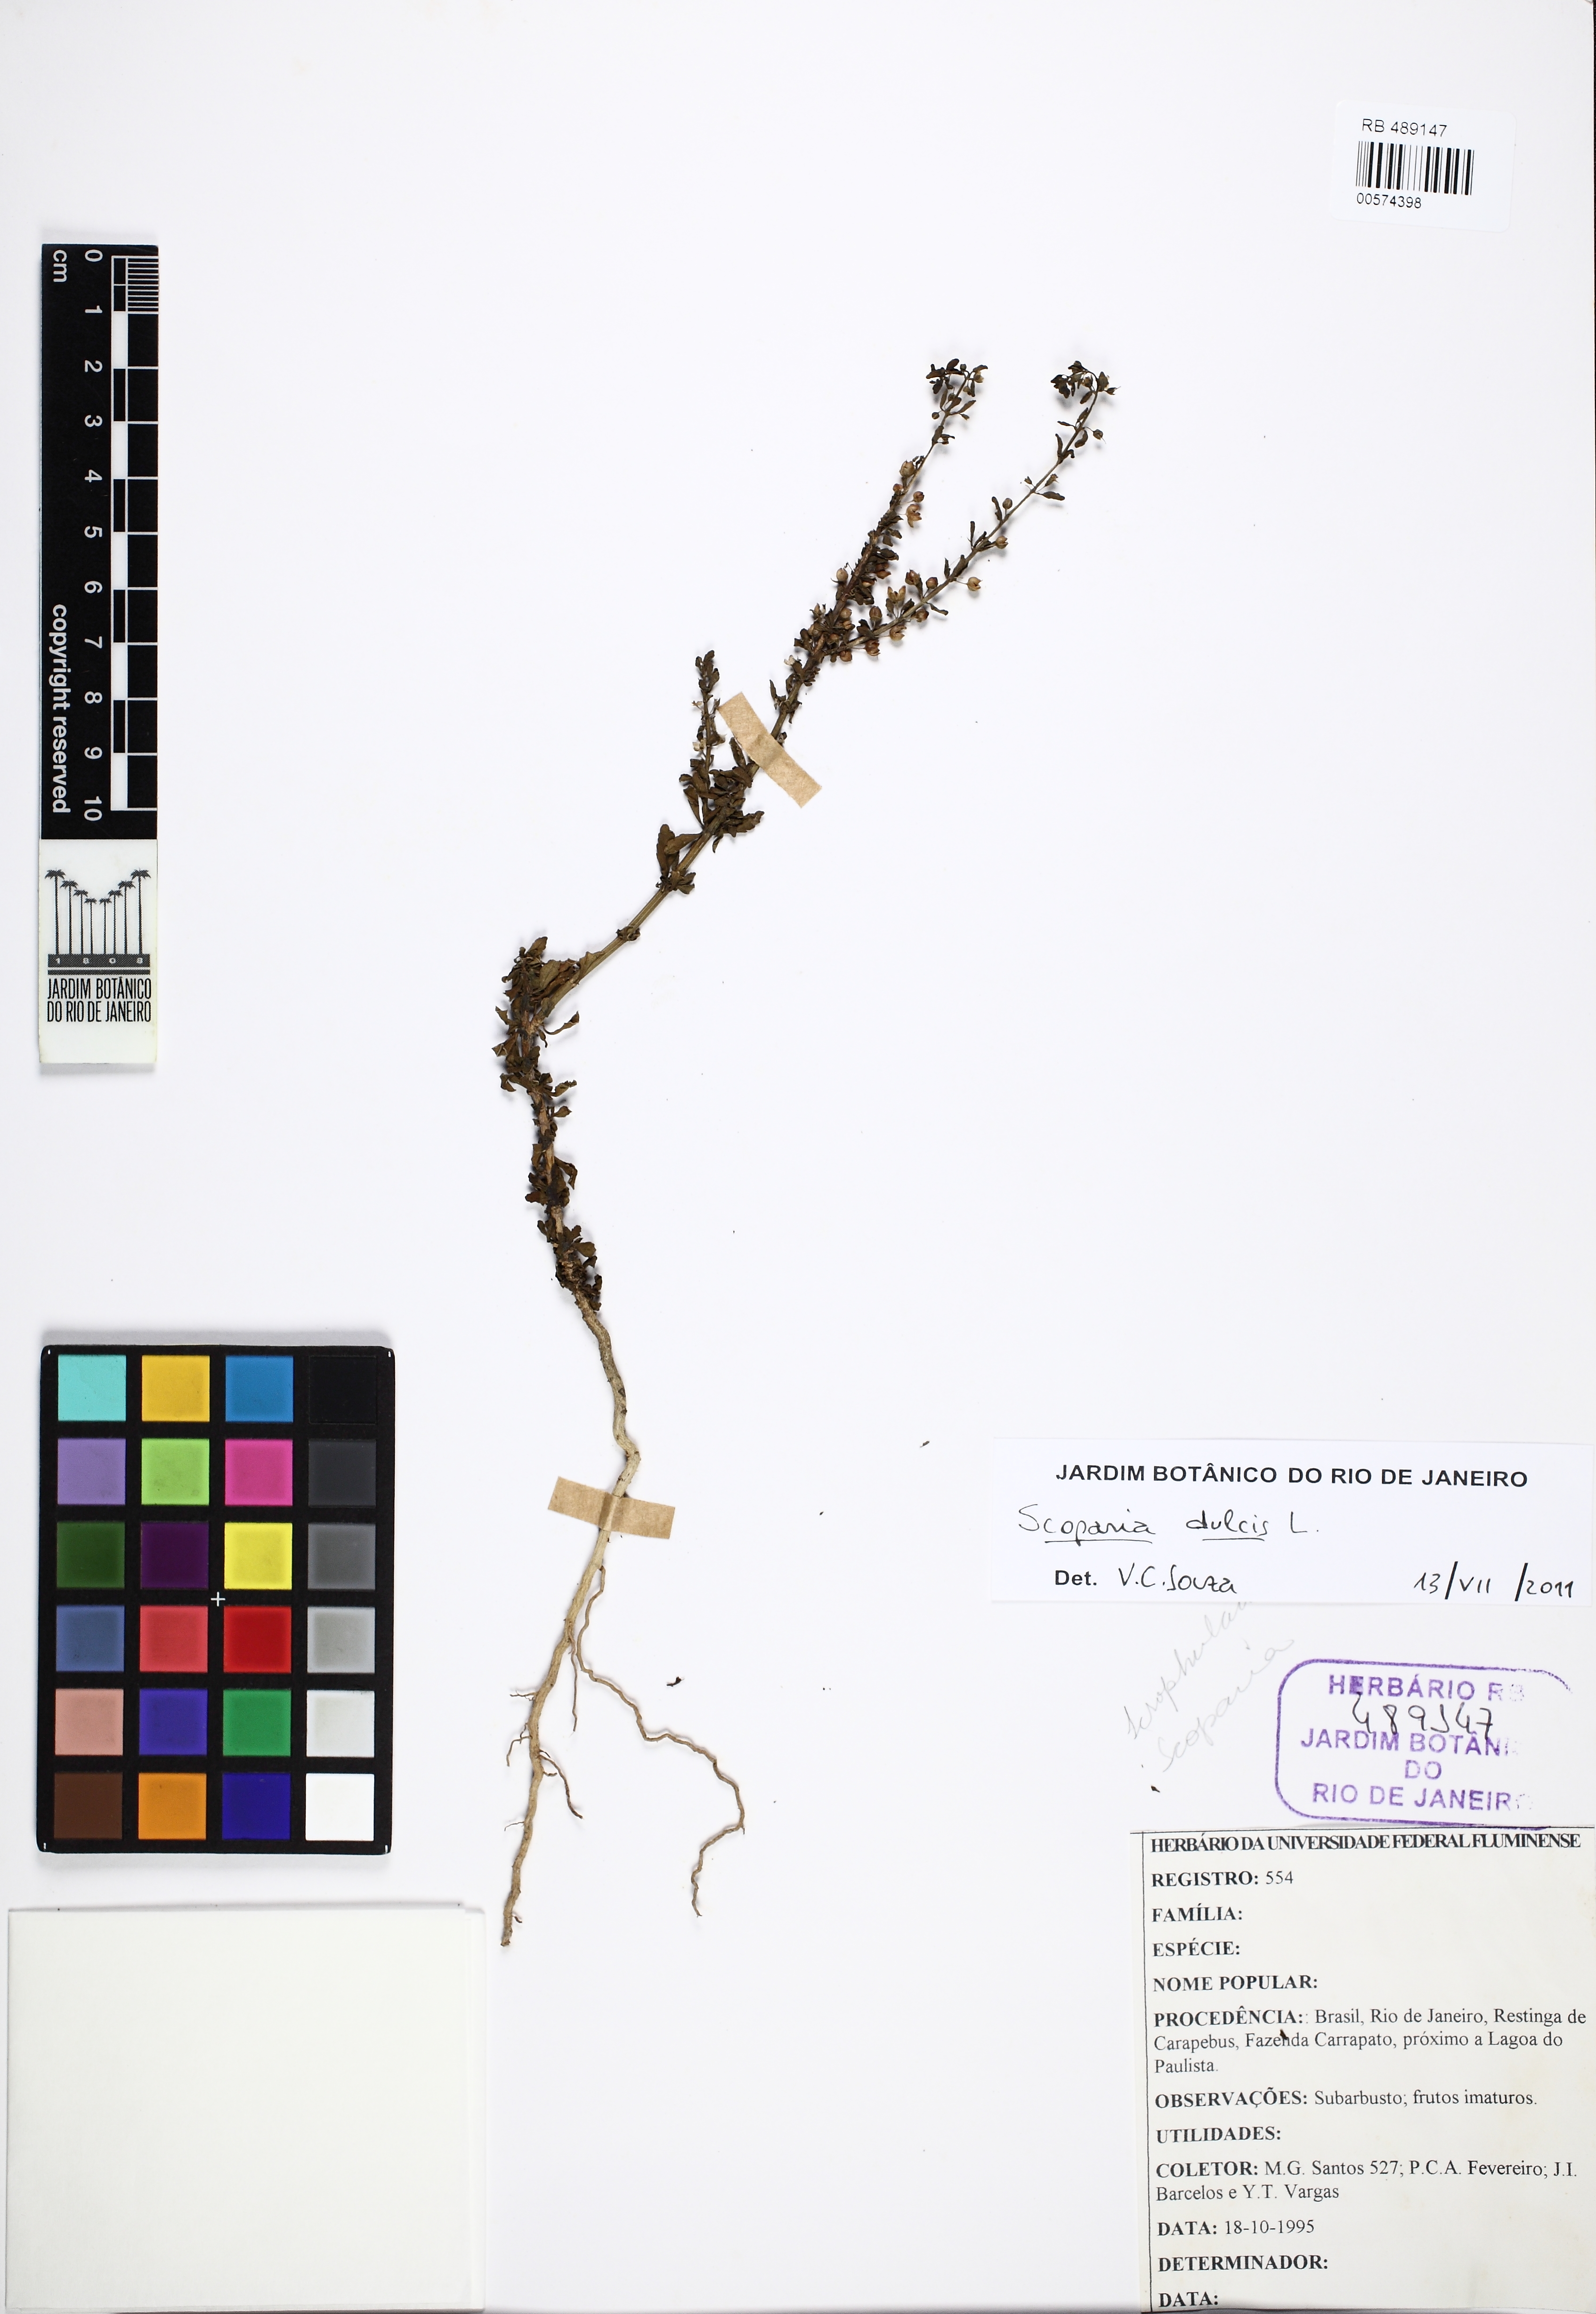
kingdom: Plantae
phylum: Tracheophyta
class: Magnoliopsida
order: Lamiales
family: Plantaginaceae
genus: Scoparia
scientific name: Scoparia dulcis
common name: Scoparia-weed
